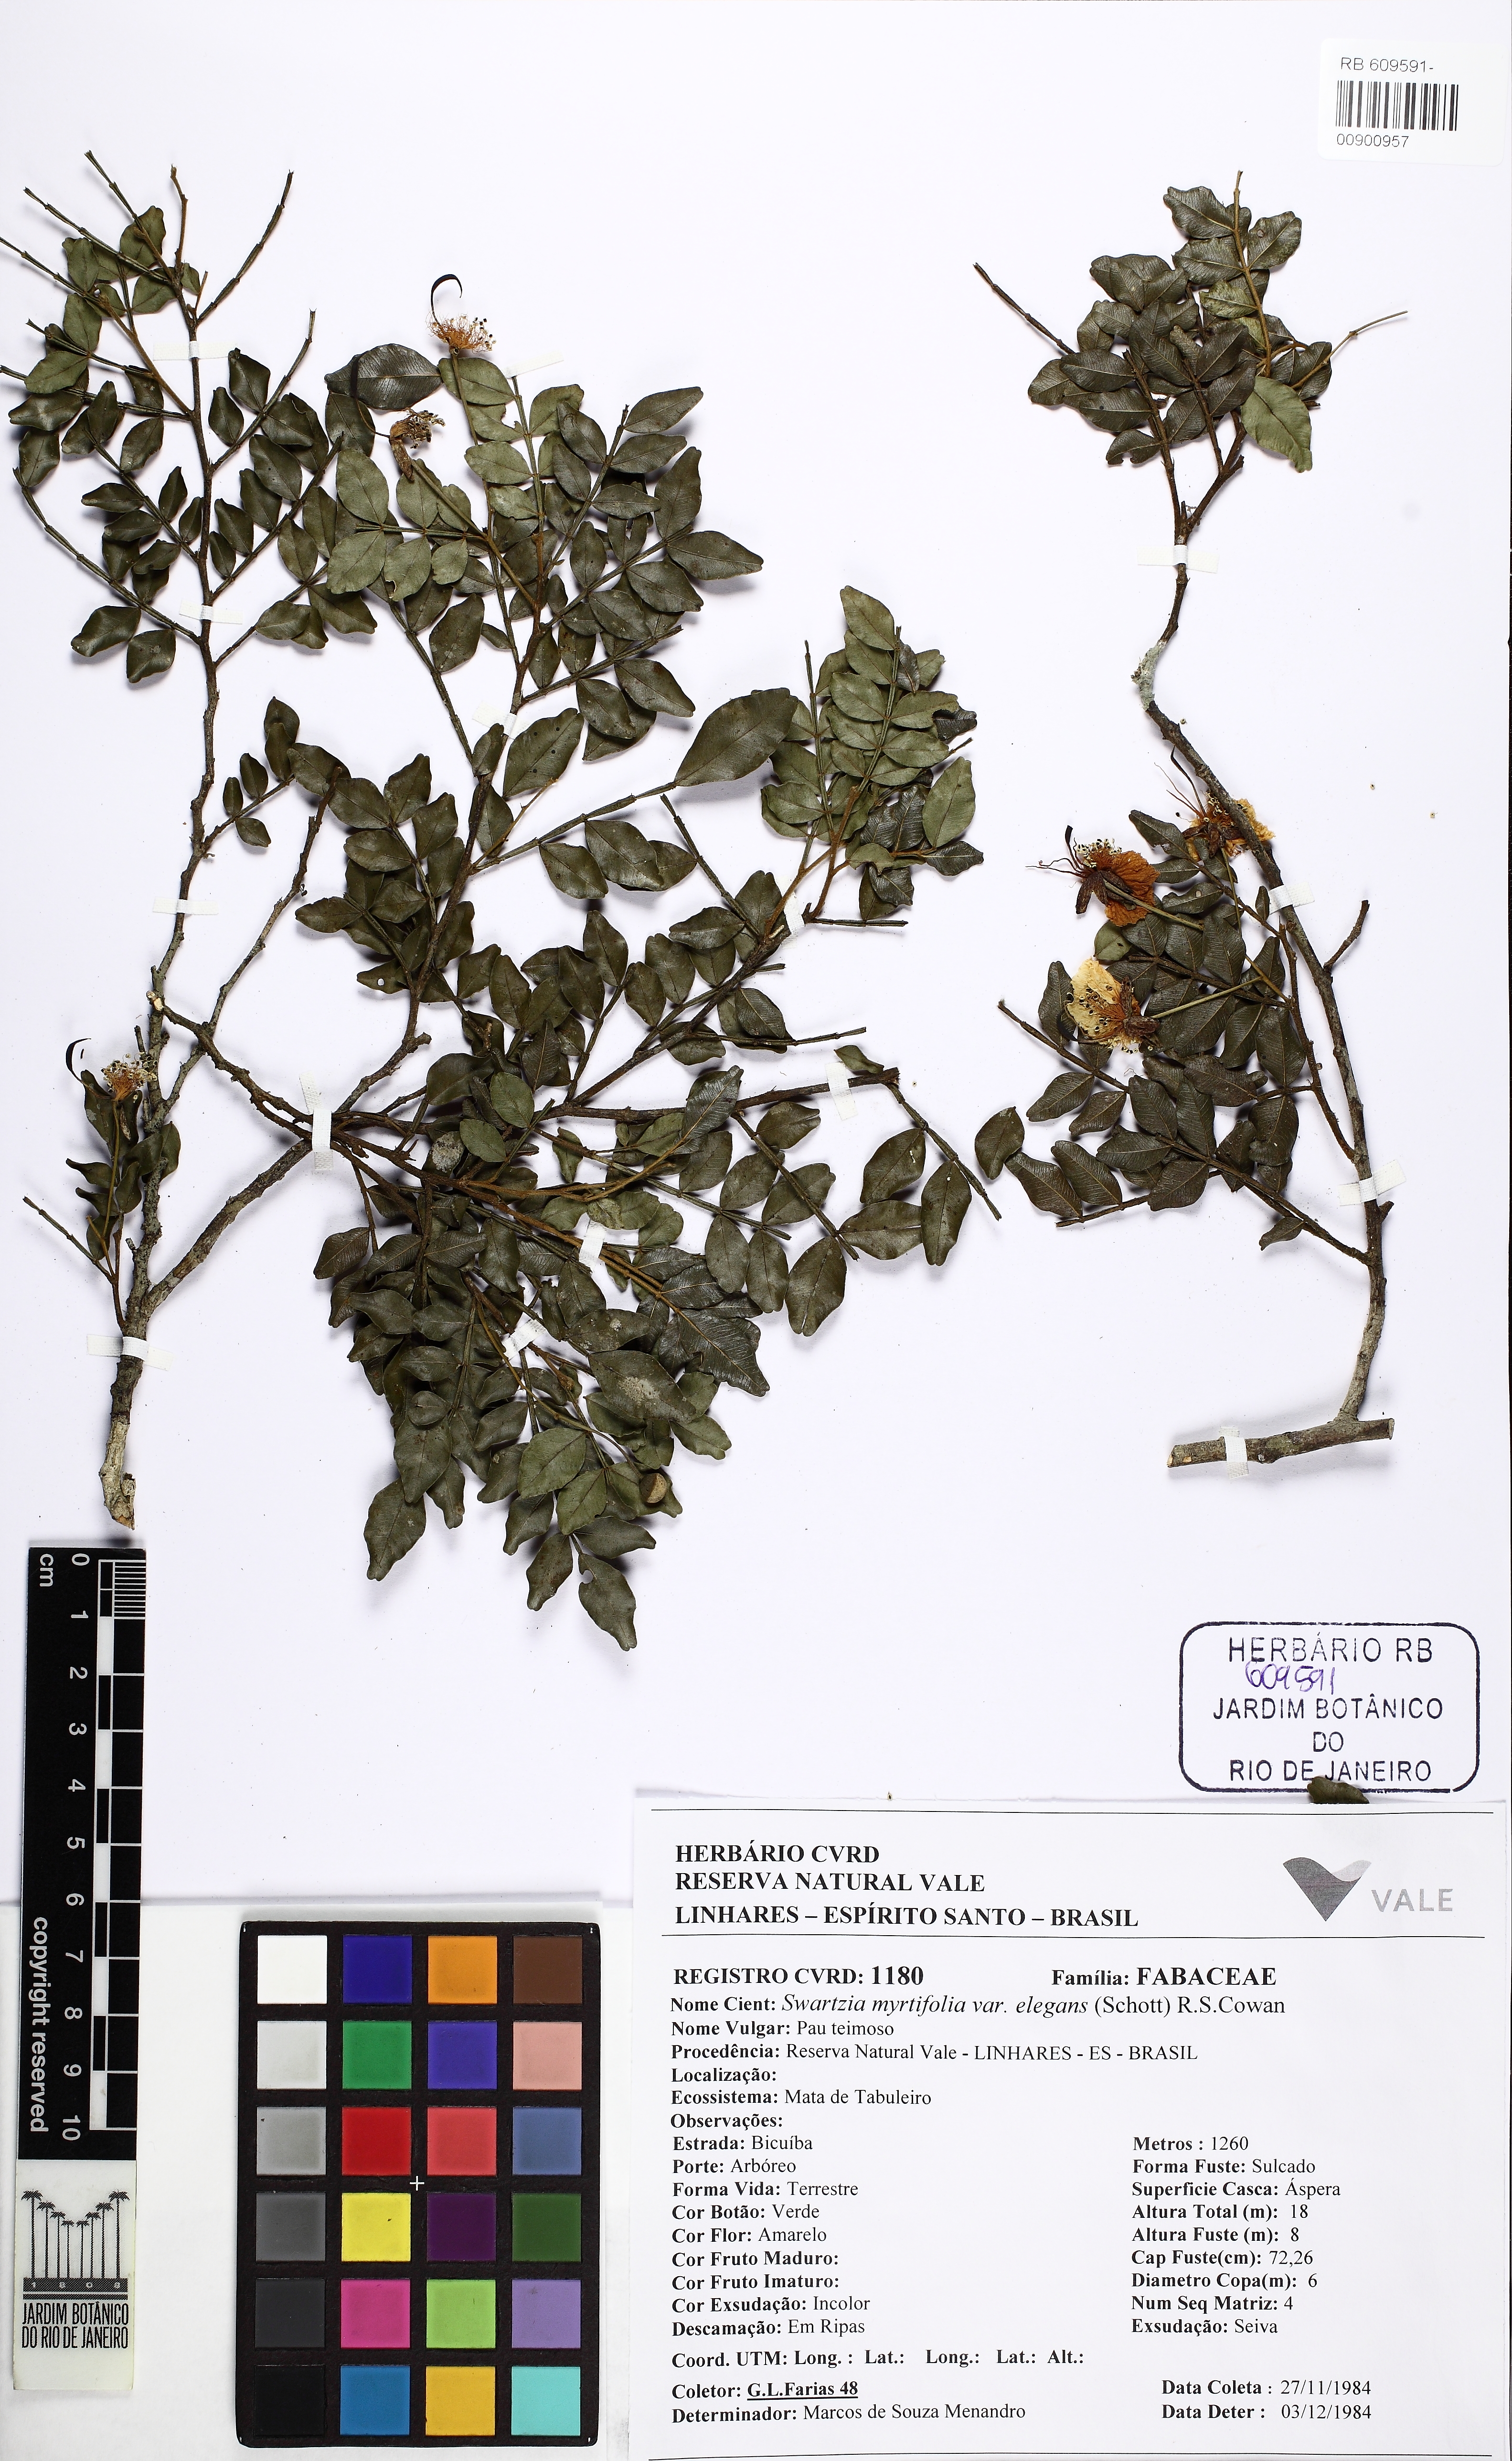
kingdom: Plantae
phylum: Tracheophyta
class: Magnoliopsida
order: Fabales
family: Fabaceae
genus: Swartzia
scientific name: Swartzia myrtifolia
